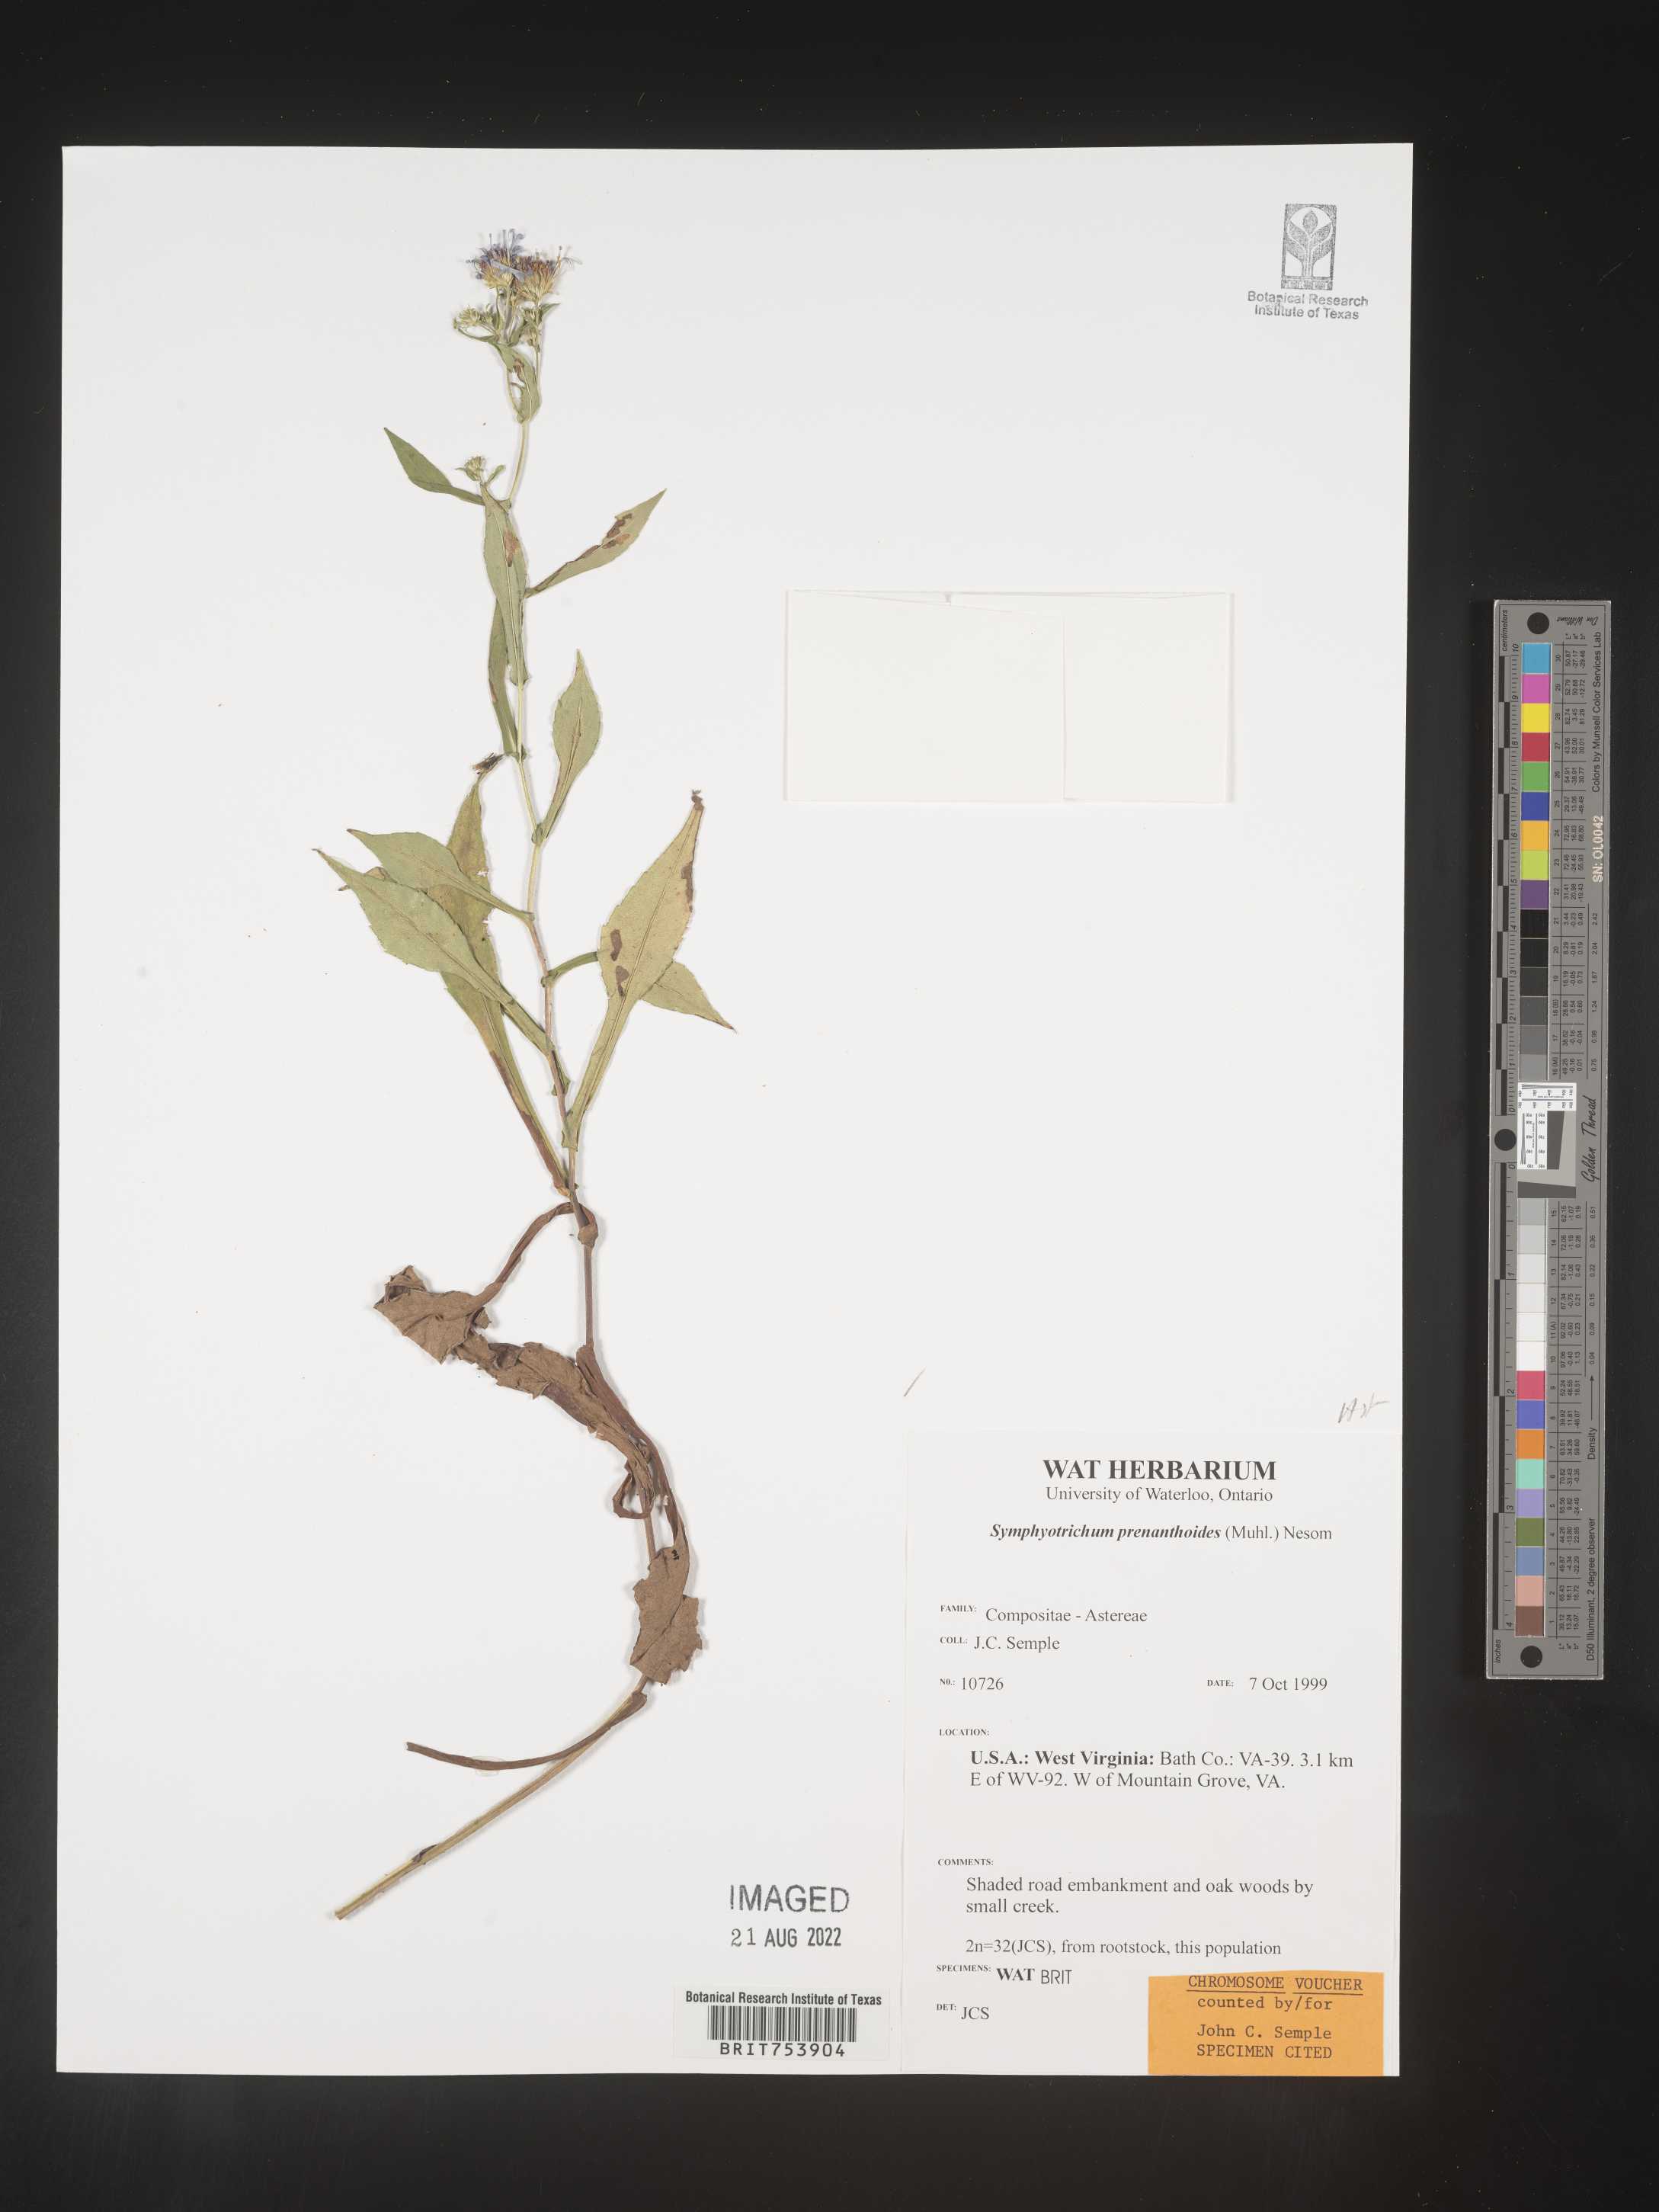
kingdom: Plantae
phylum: Tracheophyta
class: Magnoliopsida
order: Asterales
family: Asteraceae
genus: Symphyotrichum
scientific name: Symphyotrichum prenanthoides
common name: Crooked-stem aster
